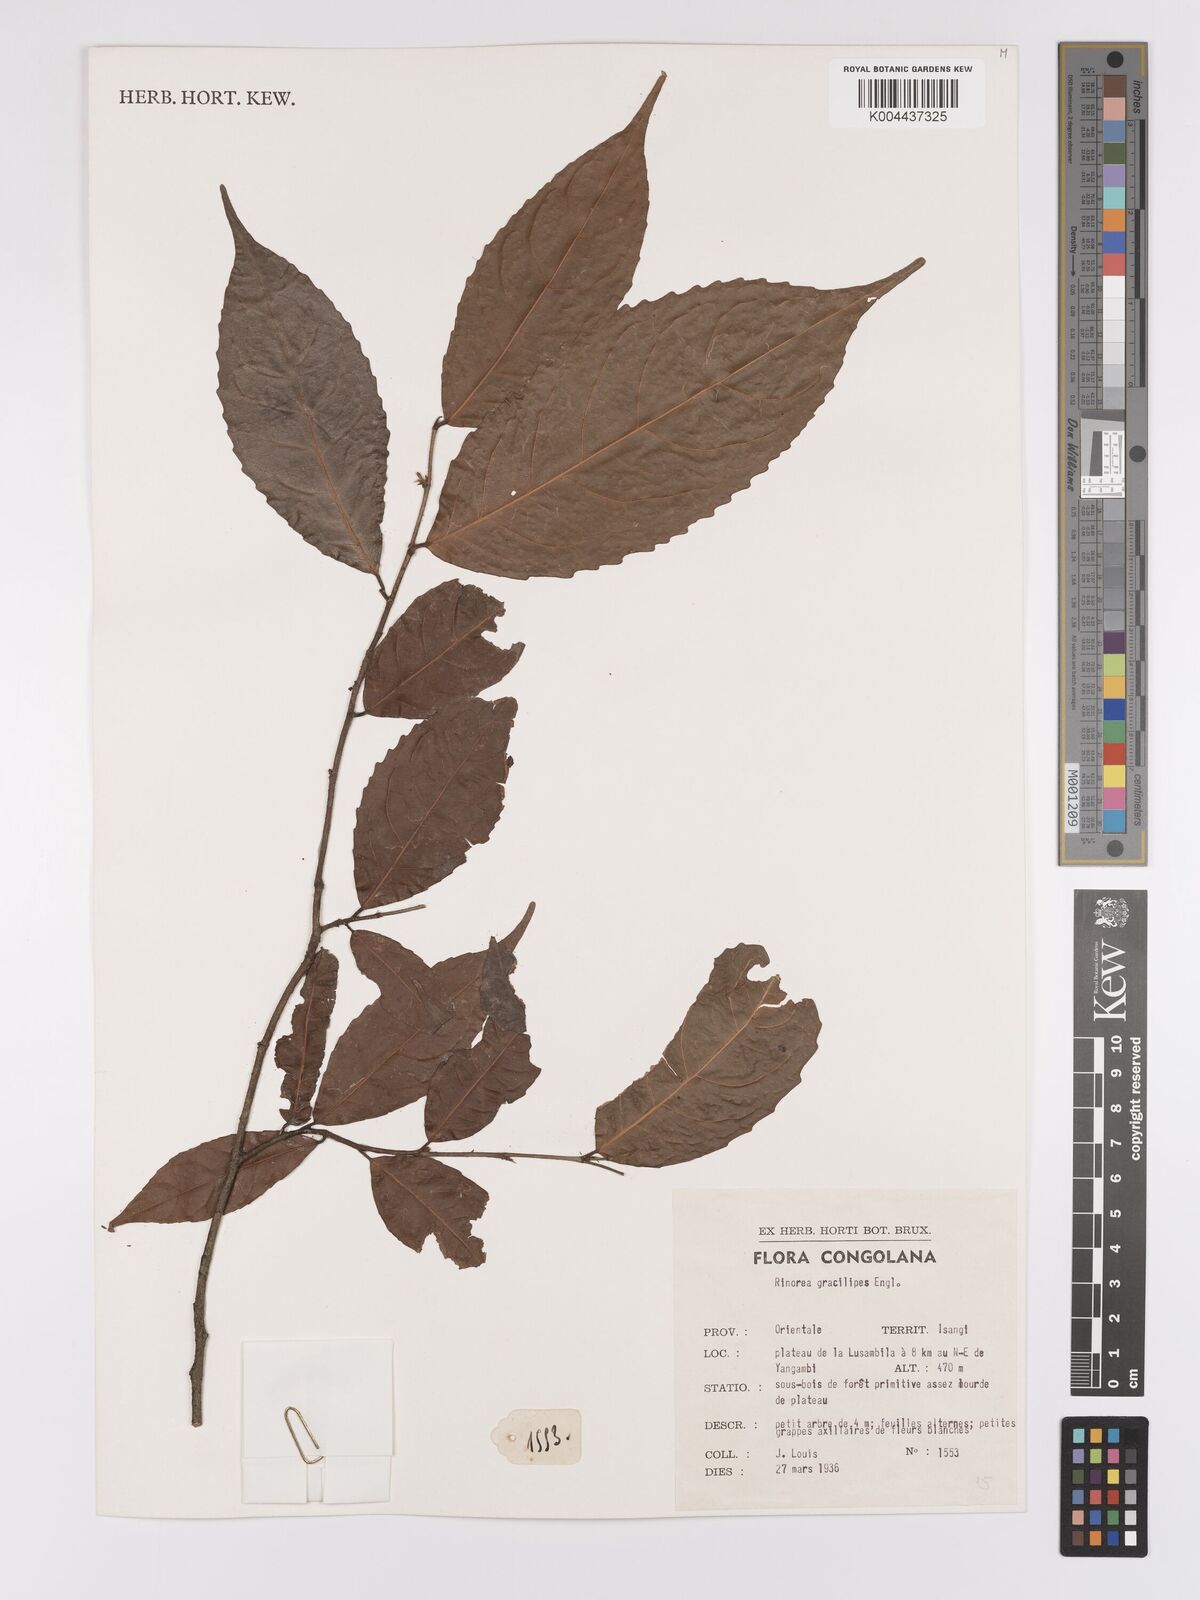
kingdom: Plantae
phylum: Tracheophyta
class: Magnoliopsida
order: Malpighiales
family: Violaceae
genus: Rinorea
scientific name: Rinorea angustifolia
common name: White violet-bush
